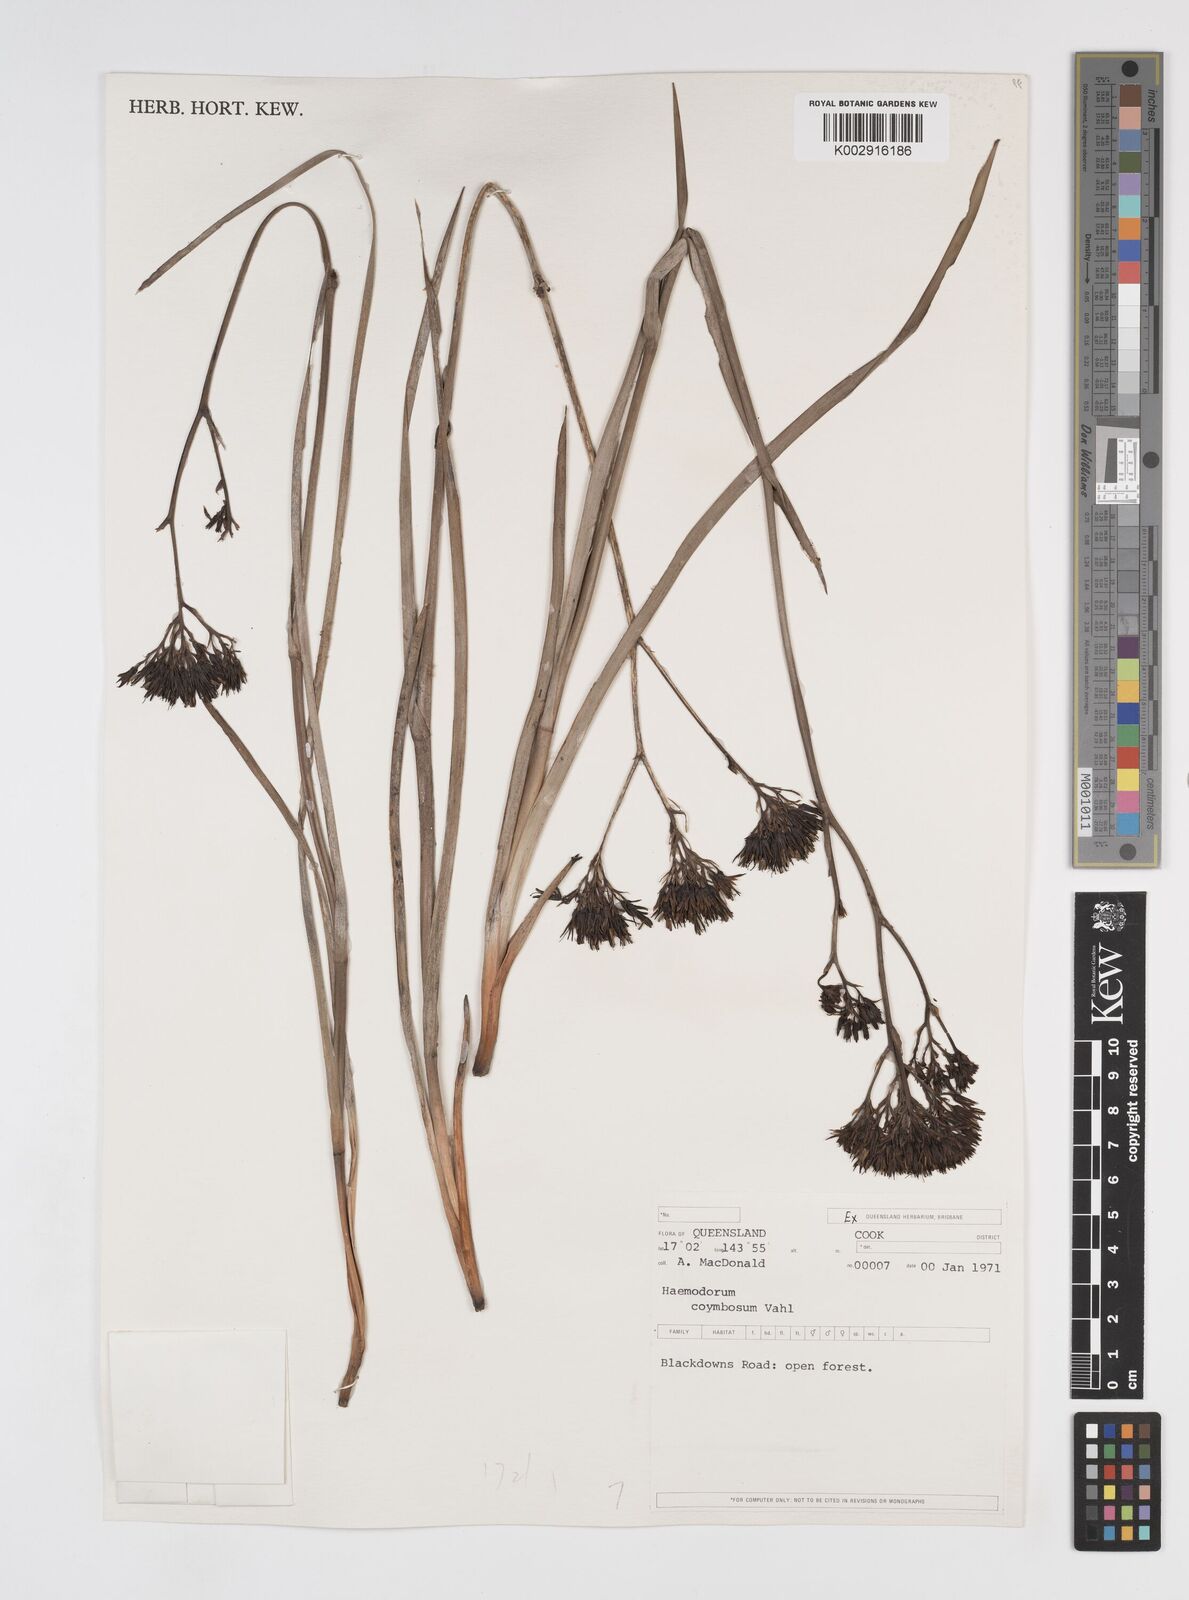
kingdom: Plantae
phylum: Tracheophyta
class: Liliopsida
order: Commelinales
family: Haemodoraceae
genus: Haemodorum
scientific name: Haemodorum corymbosum
